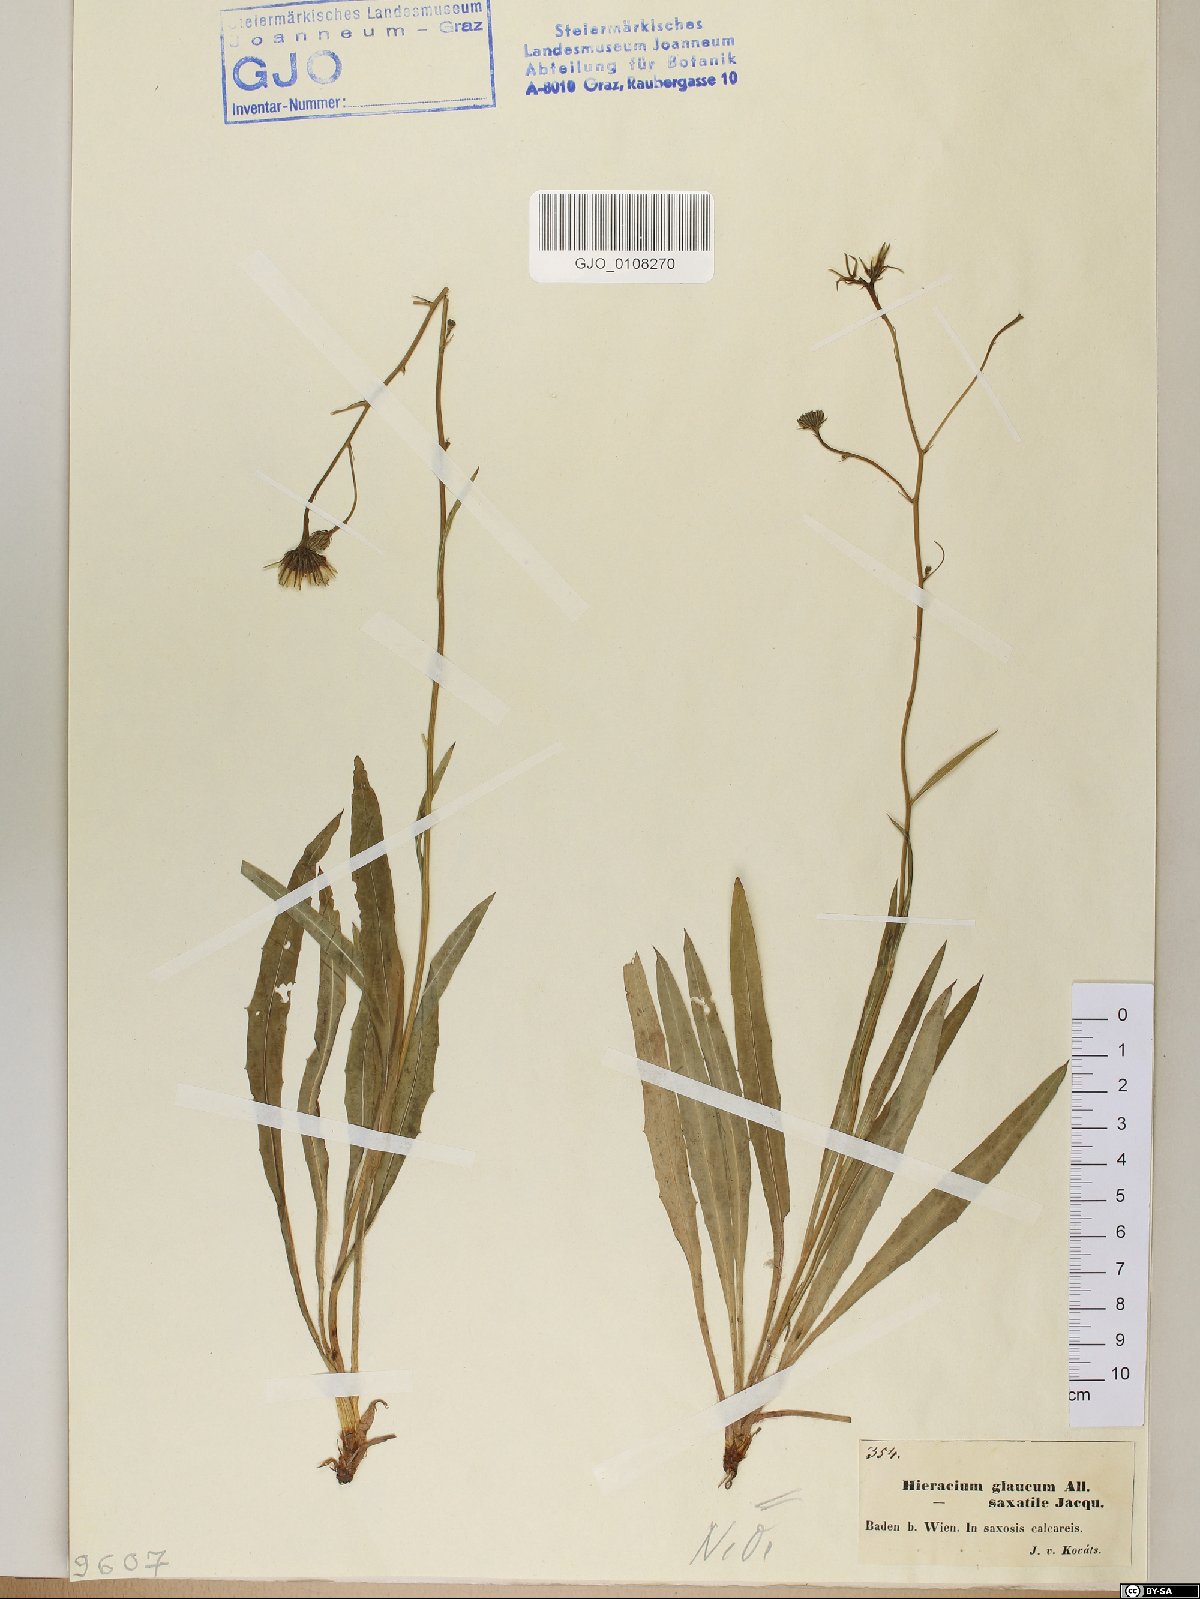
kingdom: Plantae
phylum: Tracheophyta
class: Magnoliopsida
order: Asterales
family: Asteraceae
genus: Hieracium
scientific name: Hieracium glaucum
